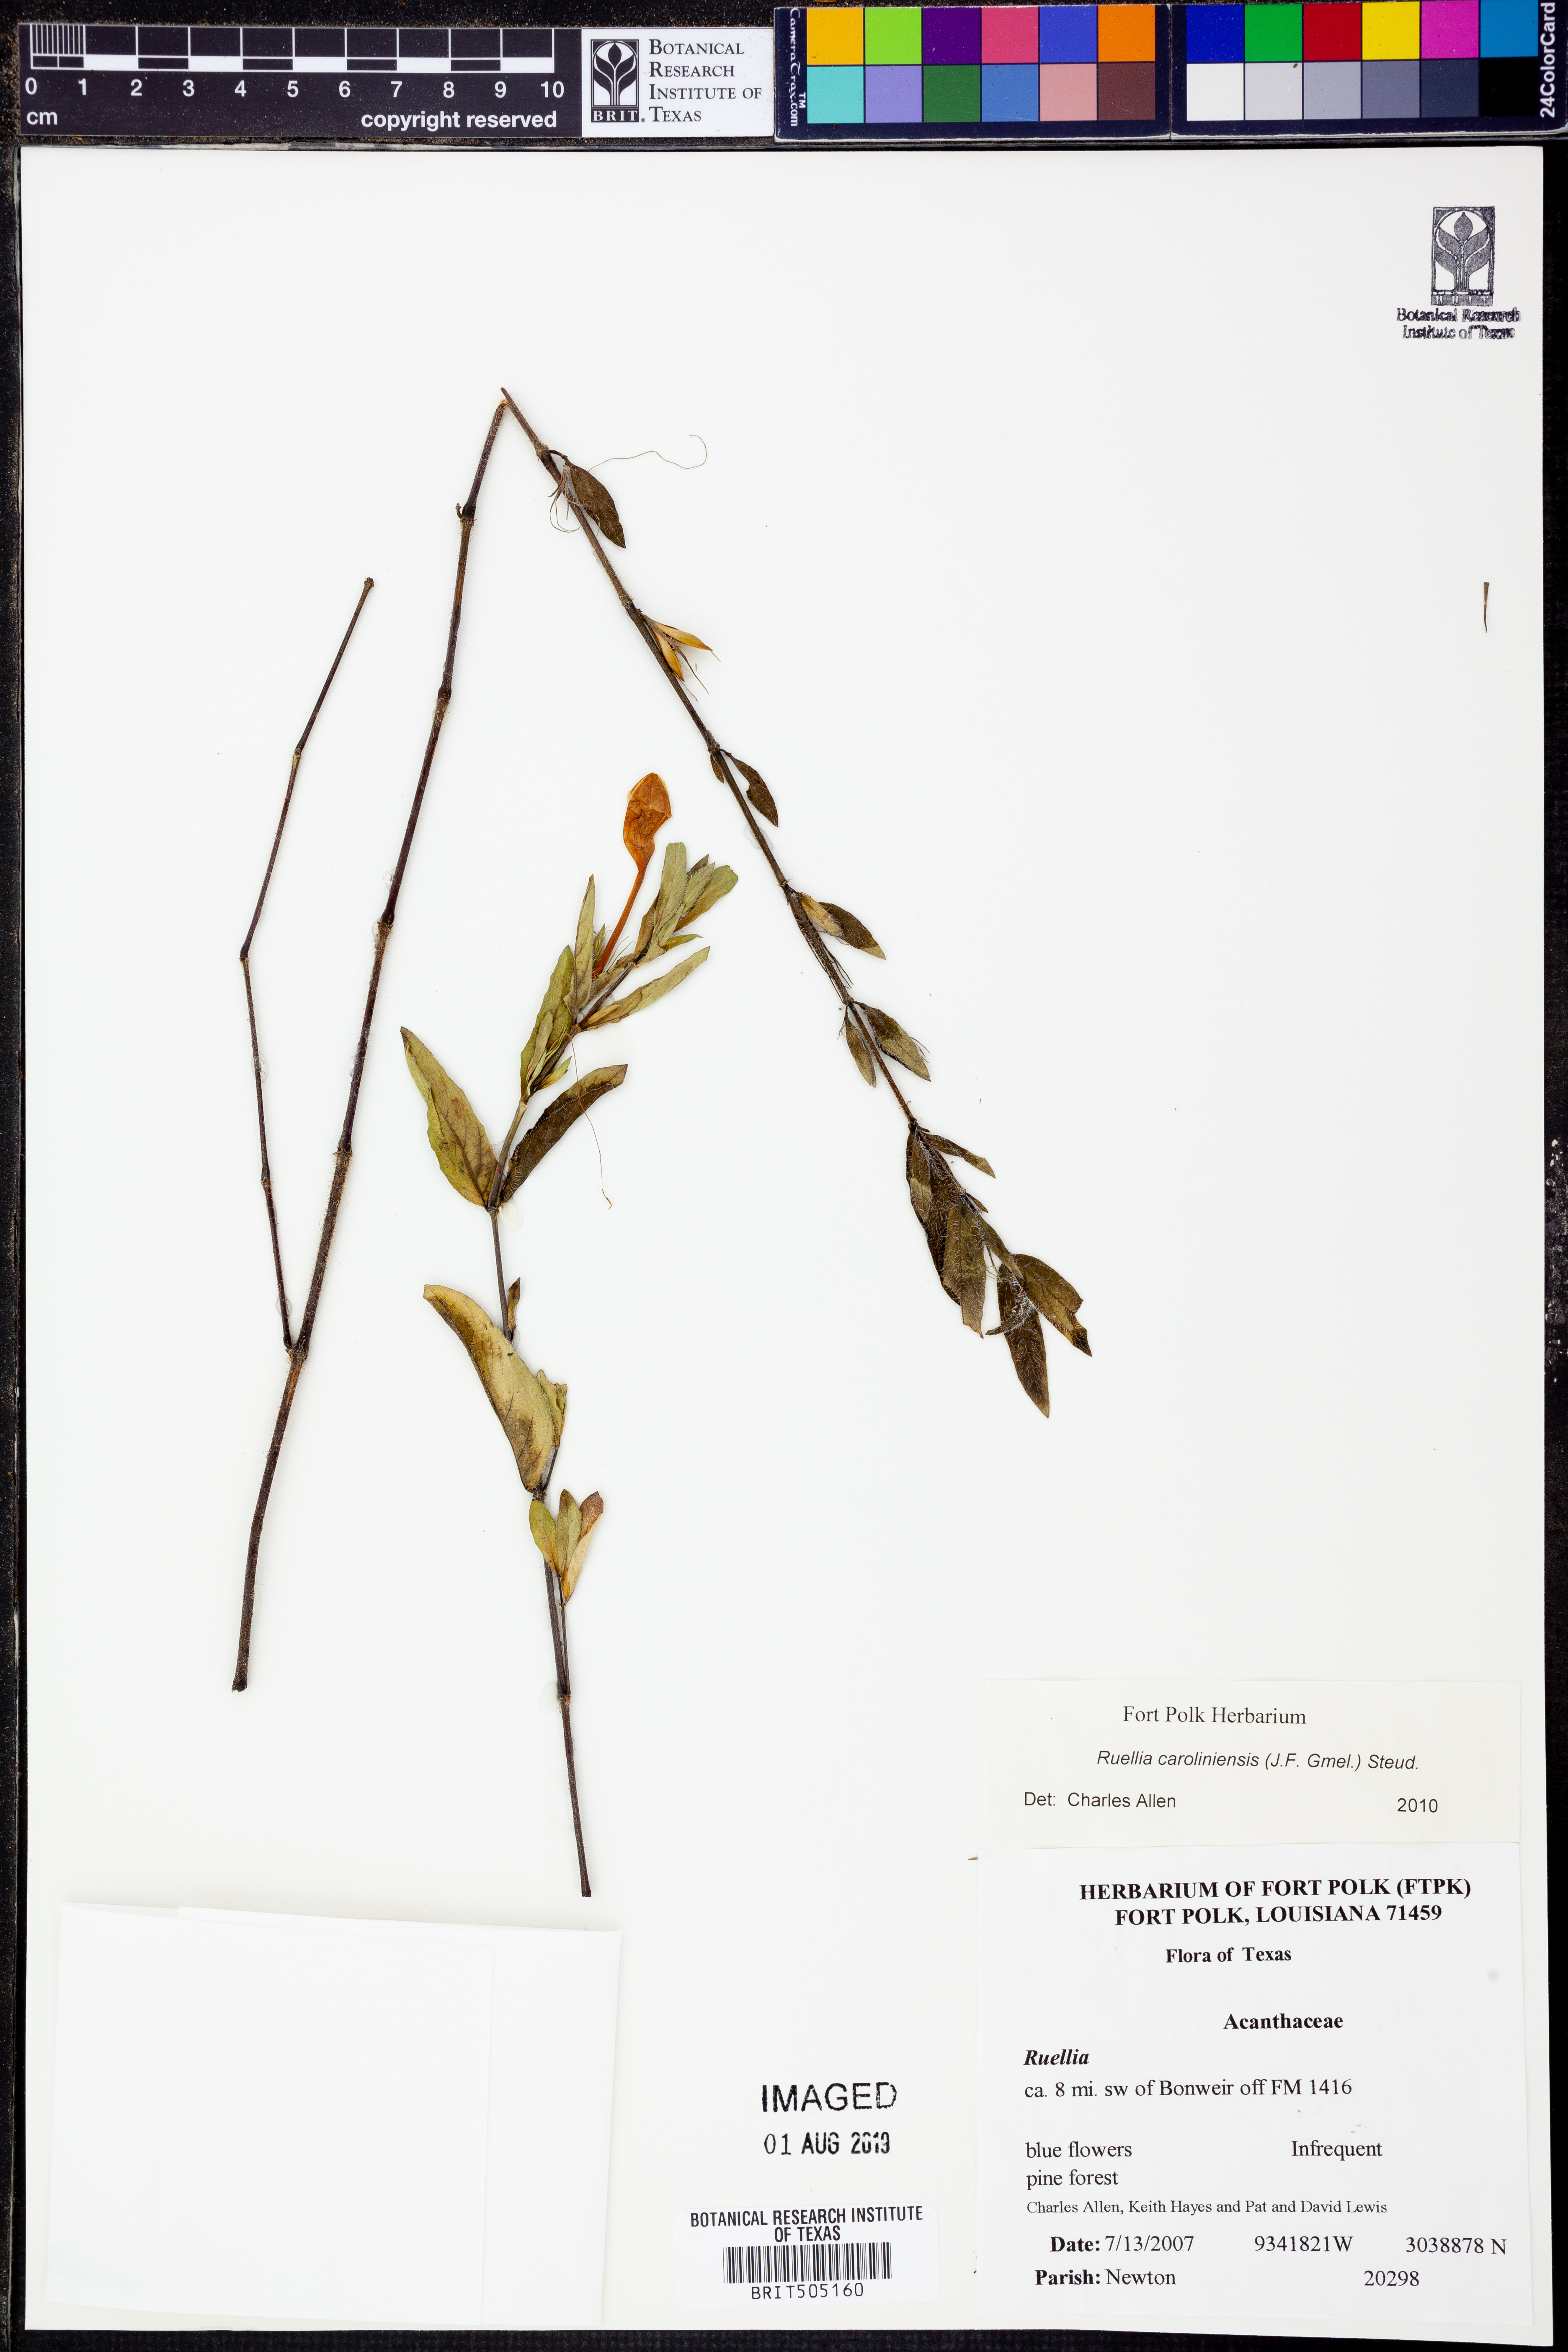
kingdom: Plantae
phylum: Tracheophyta
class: Magnoliopsida
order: Lamiales
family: Acanthaceae
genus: Ruellia
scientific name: Ruellia caroliniensis
